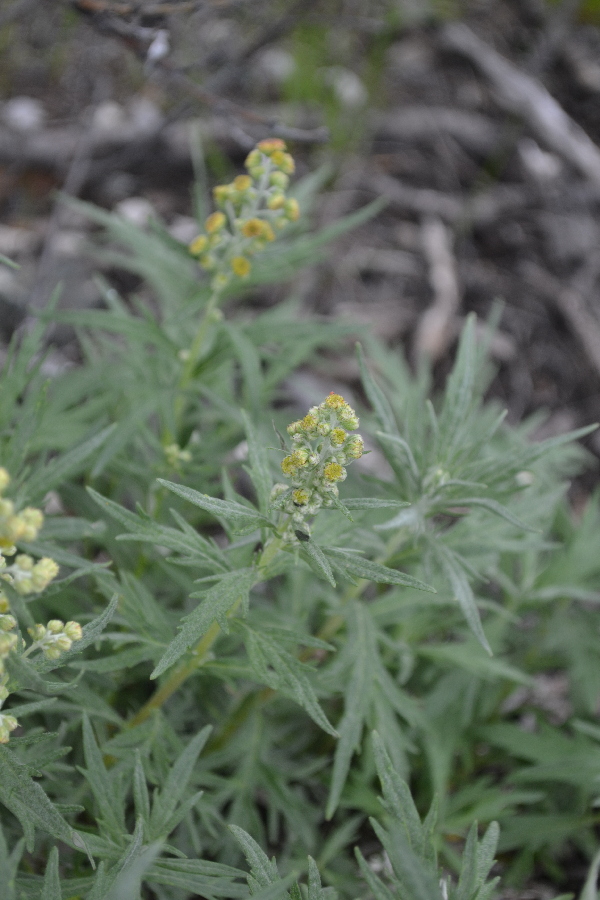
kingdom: Plantae
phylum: Tracheophyta
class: Magnoliopsida
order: Asterales
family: Asteraceae
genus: Artemisia
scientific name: Artemisia tilesii
